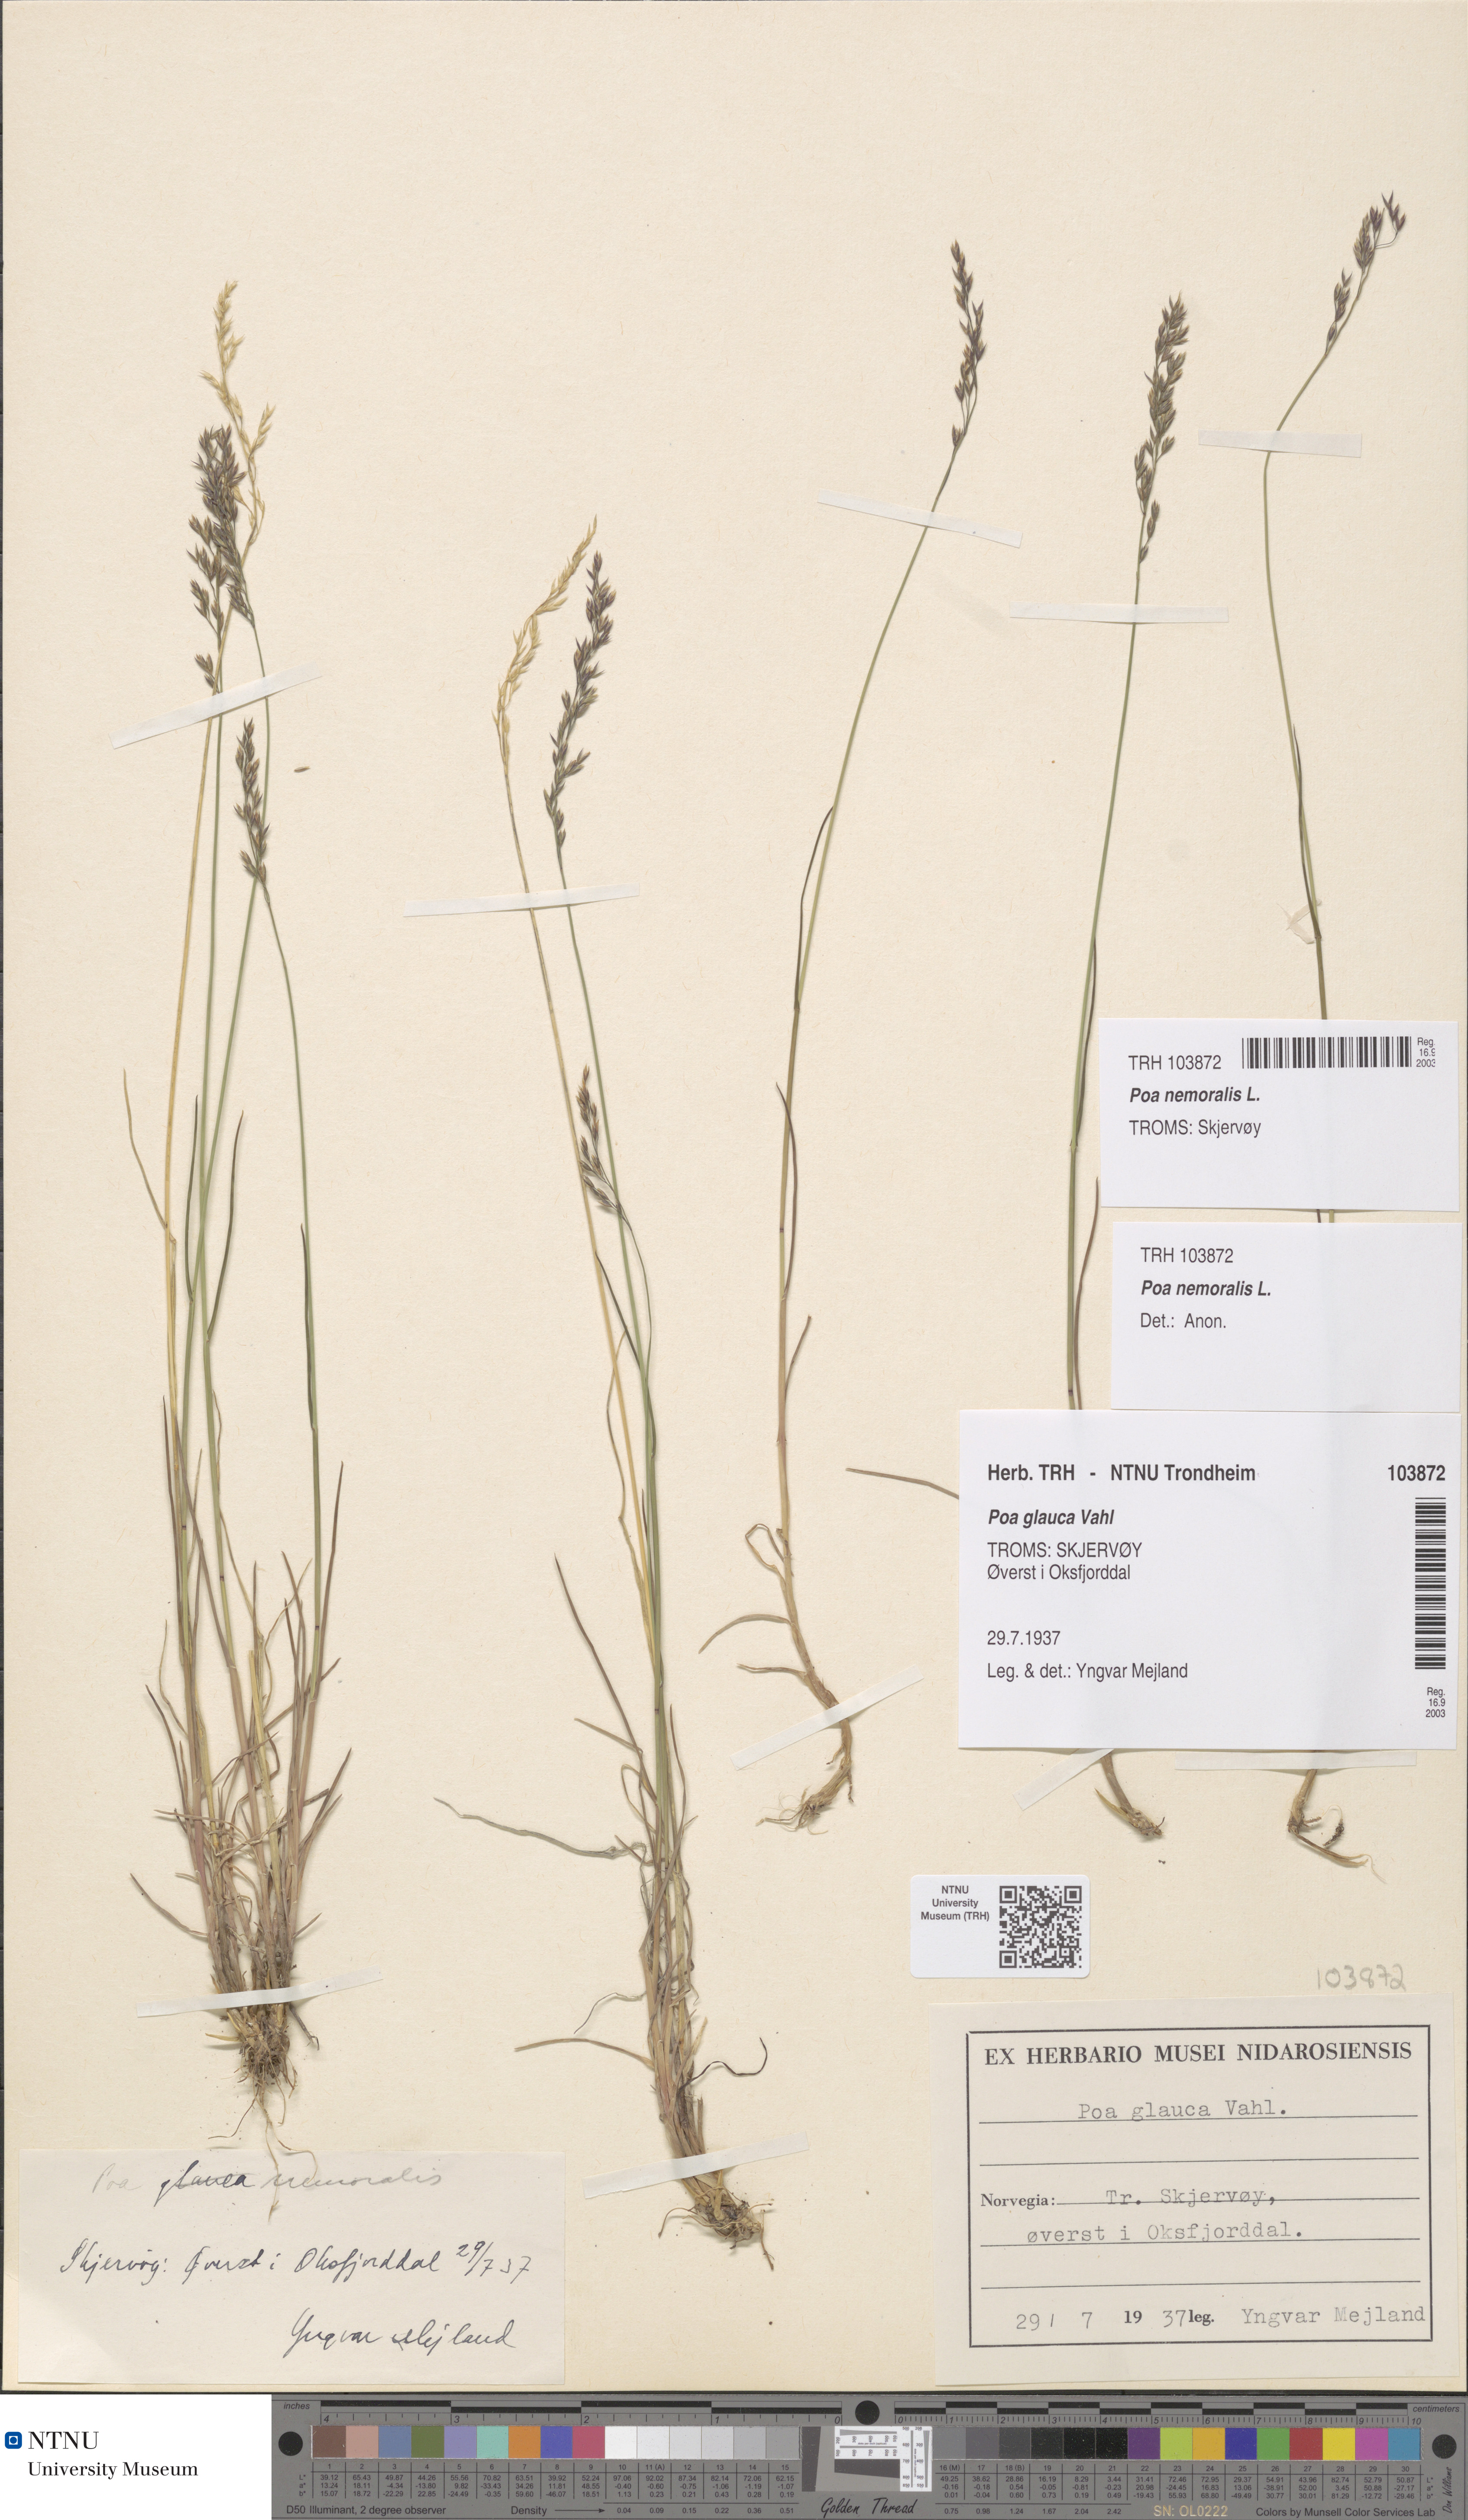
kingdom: Plantae
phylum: Tracheophyta
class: Liliopsida
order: Poales
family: Poaceae
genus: Poa
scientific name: Poa nemoralis
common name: Wood bluegrass
